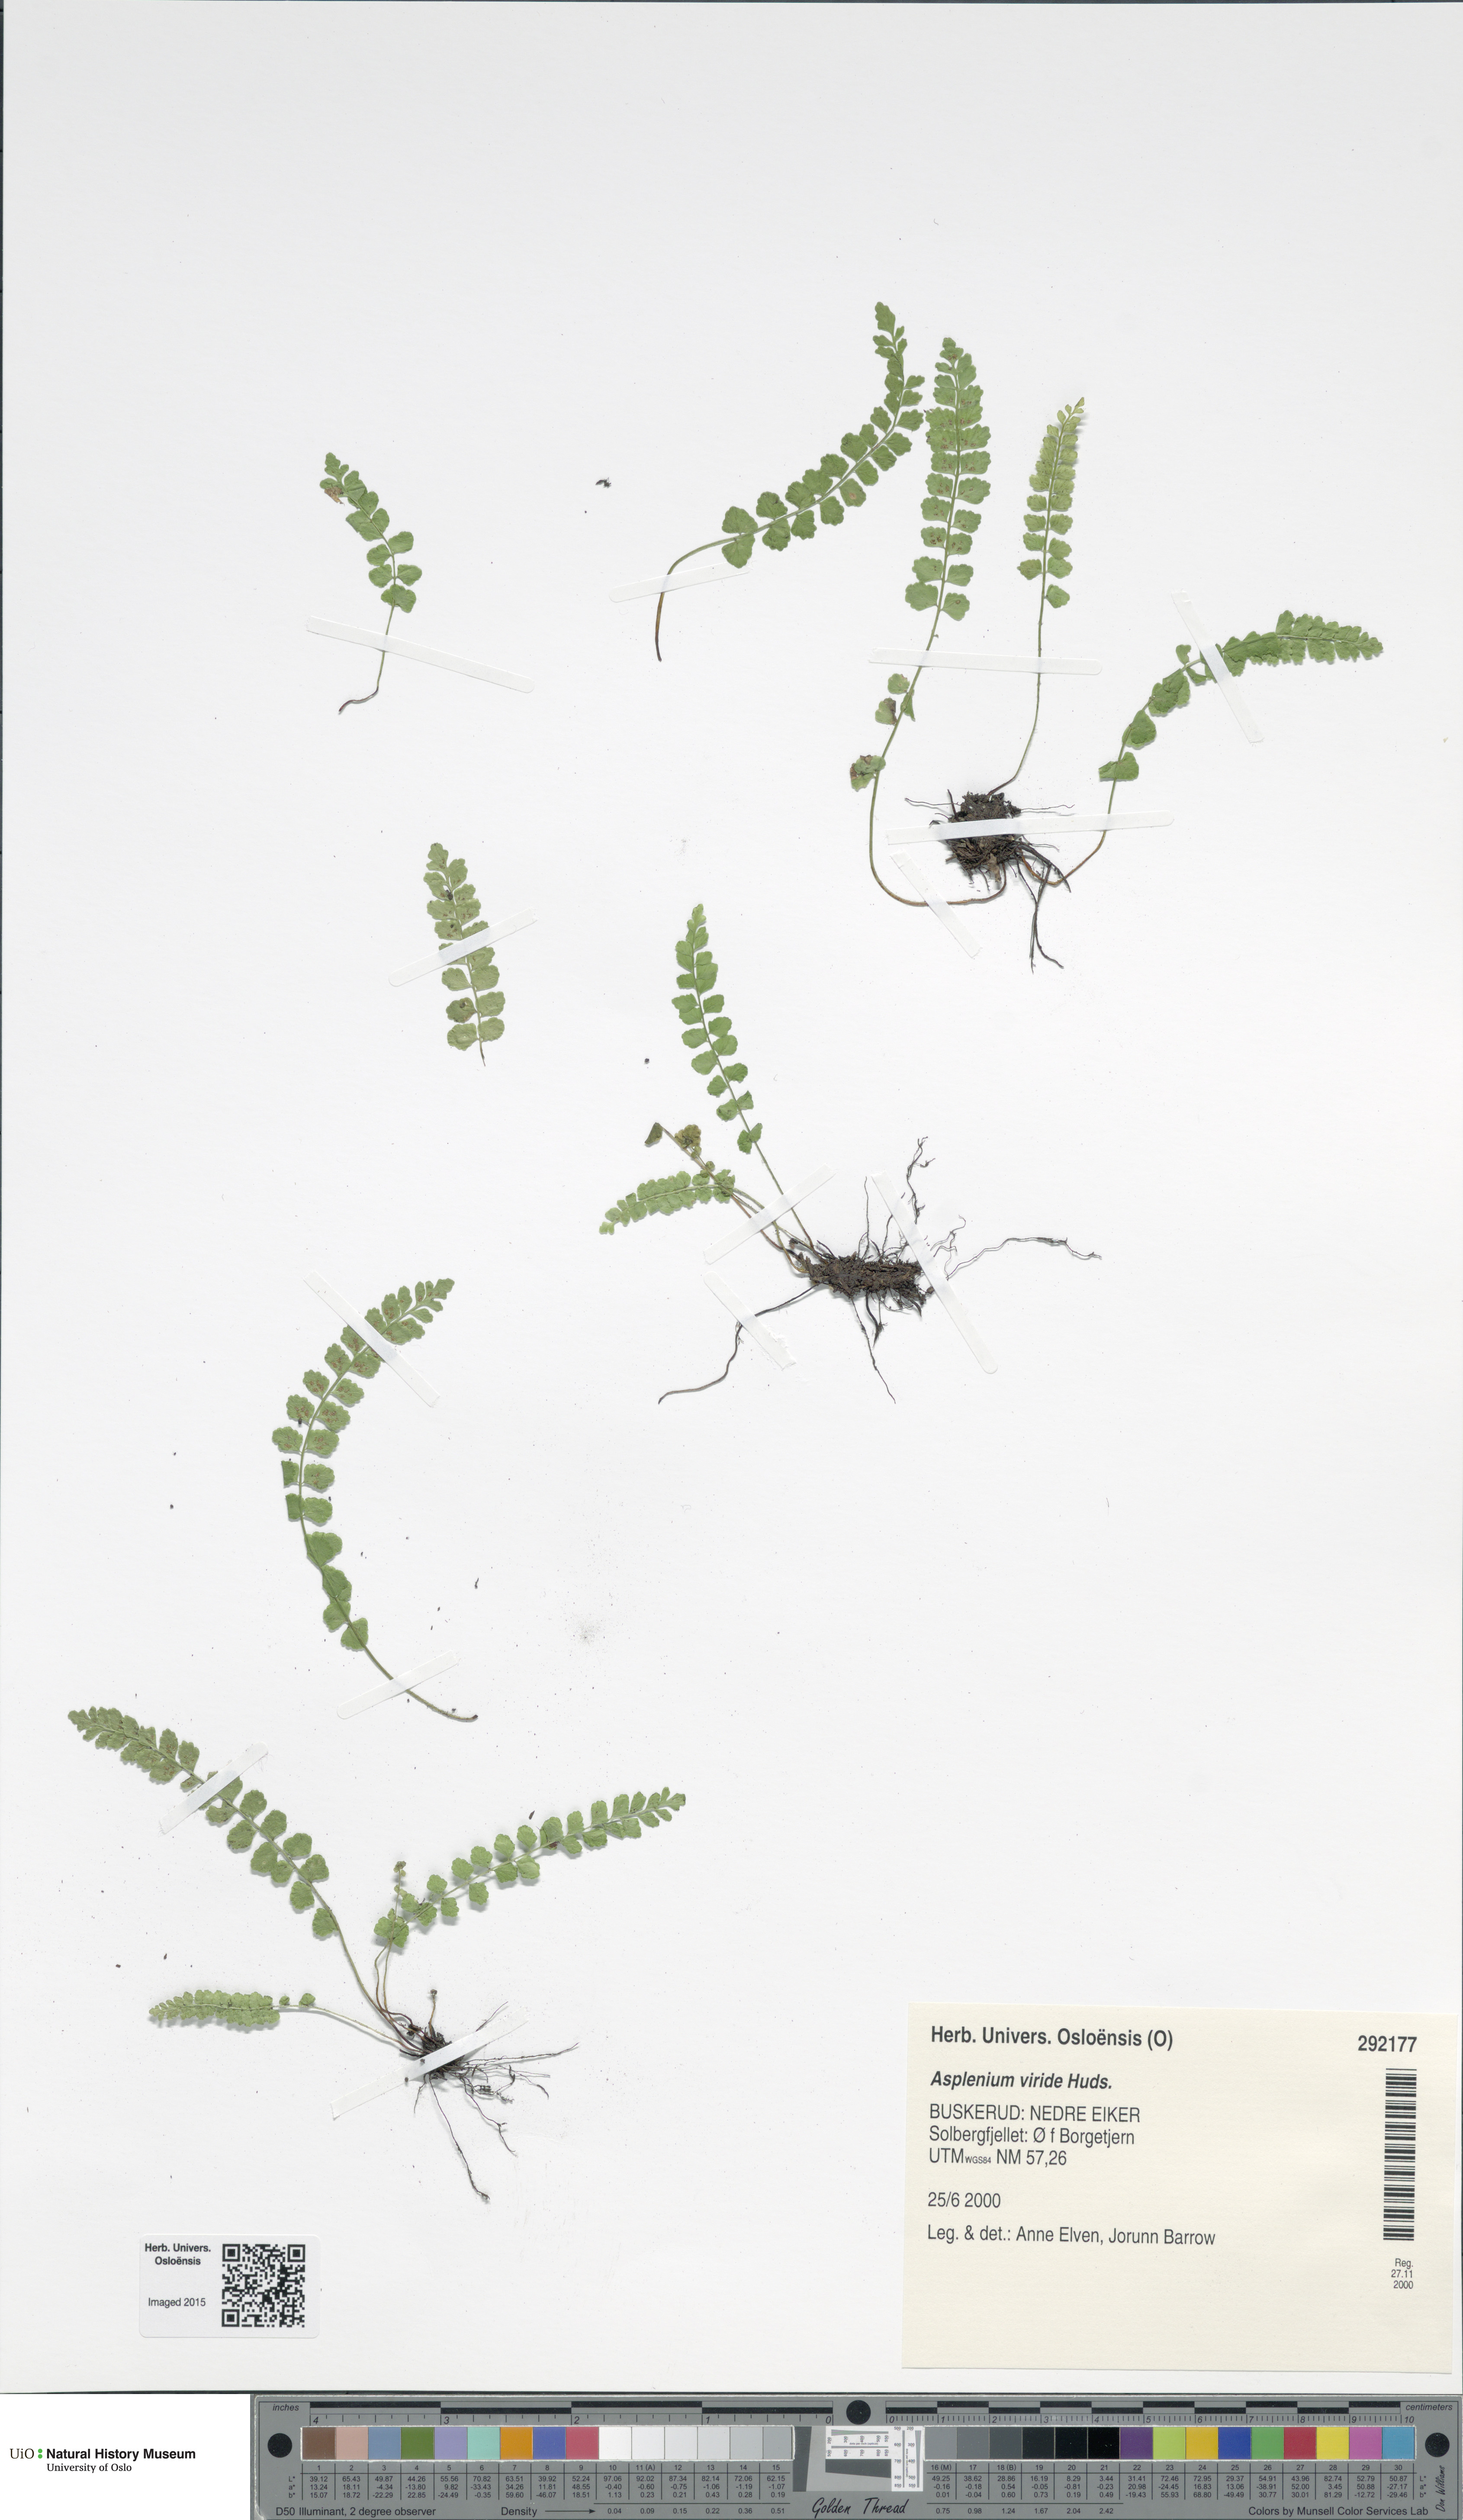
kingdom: Plantae
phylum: Tracheophyta
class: Polypodiopsida
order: Polypodiales
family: Aspleniaceae
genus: Asplenium
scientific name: Asplenium viride
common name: Green spleenwort
